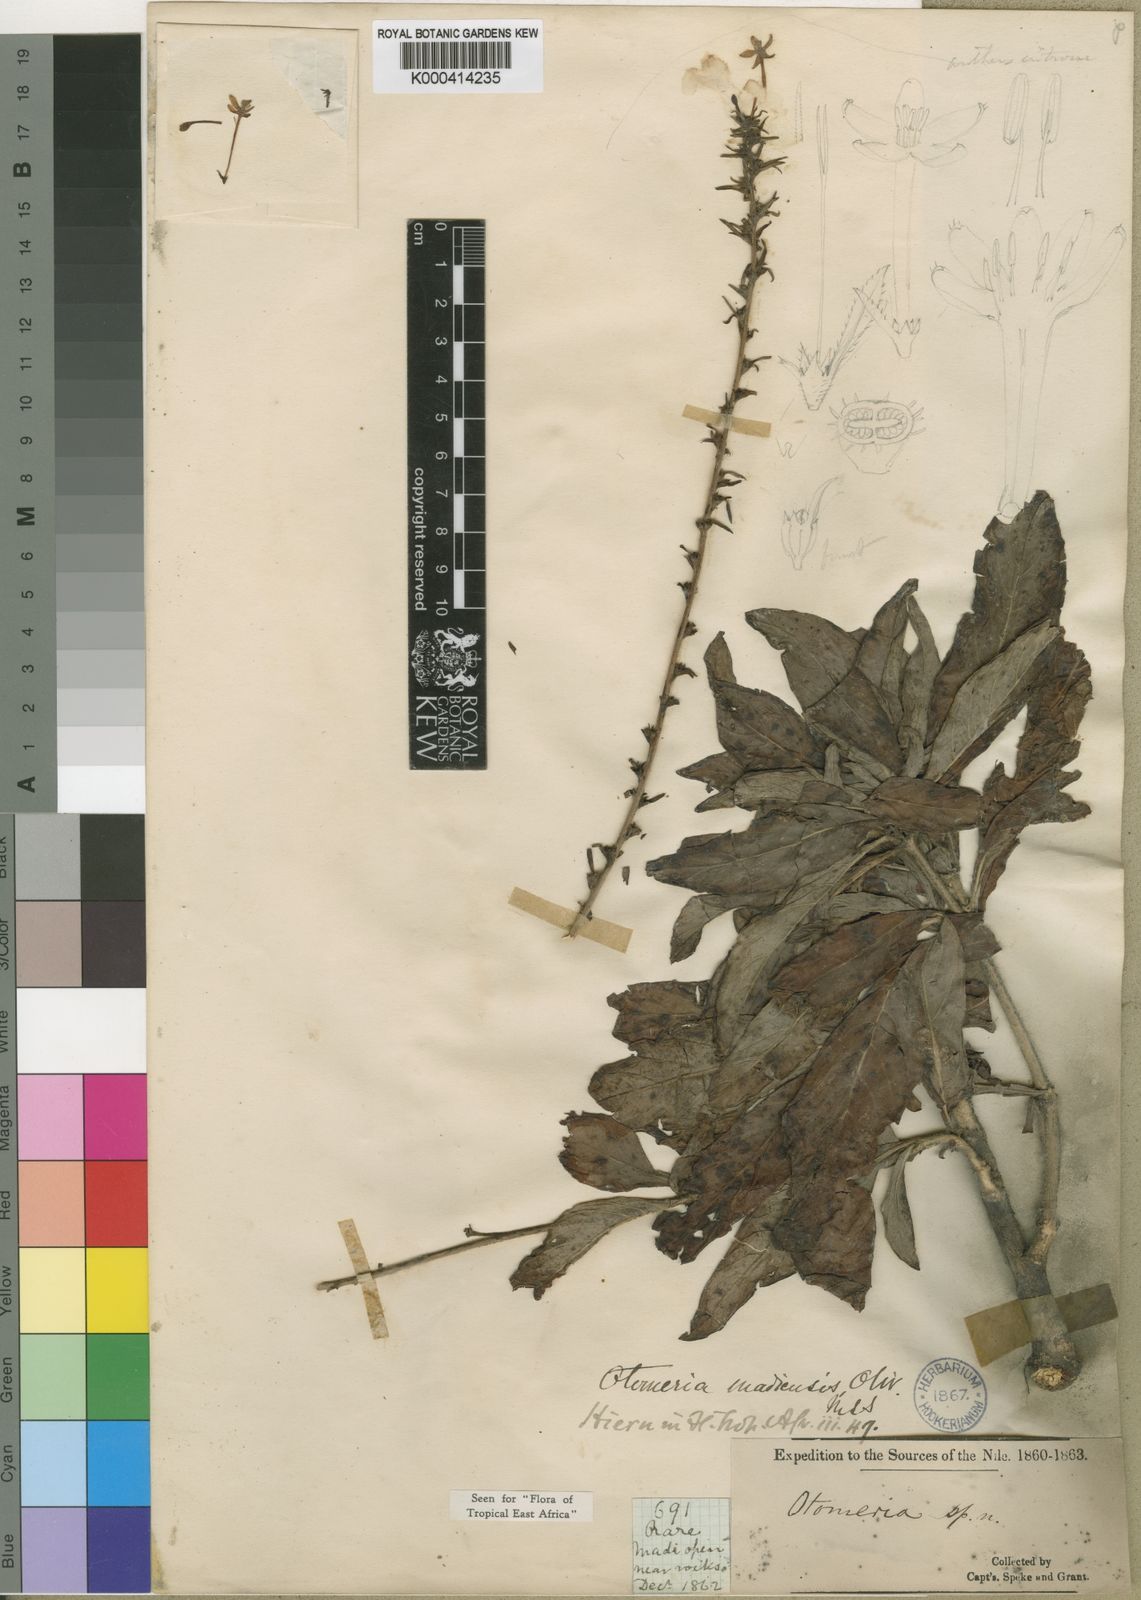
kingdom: Plantae
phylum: Tracheophyta
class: Magnoliopsida
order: Gentianales
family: Rubiaceae
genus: Otomeria
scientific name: Otomeria madiensis
